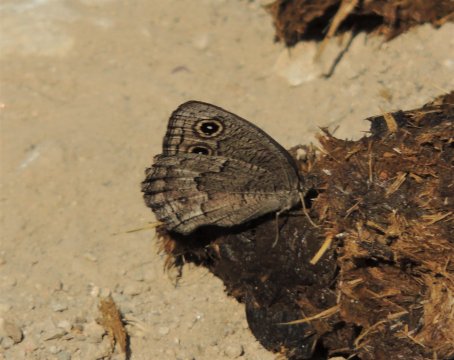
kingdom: Animalia
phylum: Arthropoda
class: Insecta
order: Lepidoptera
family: Nymphalidae
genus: Cercyonis
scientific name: Cercyonis pegala
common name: Common Wood-Nymph
